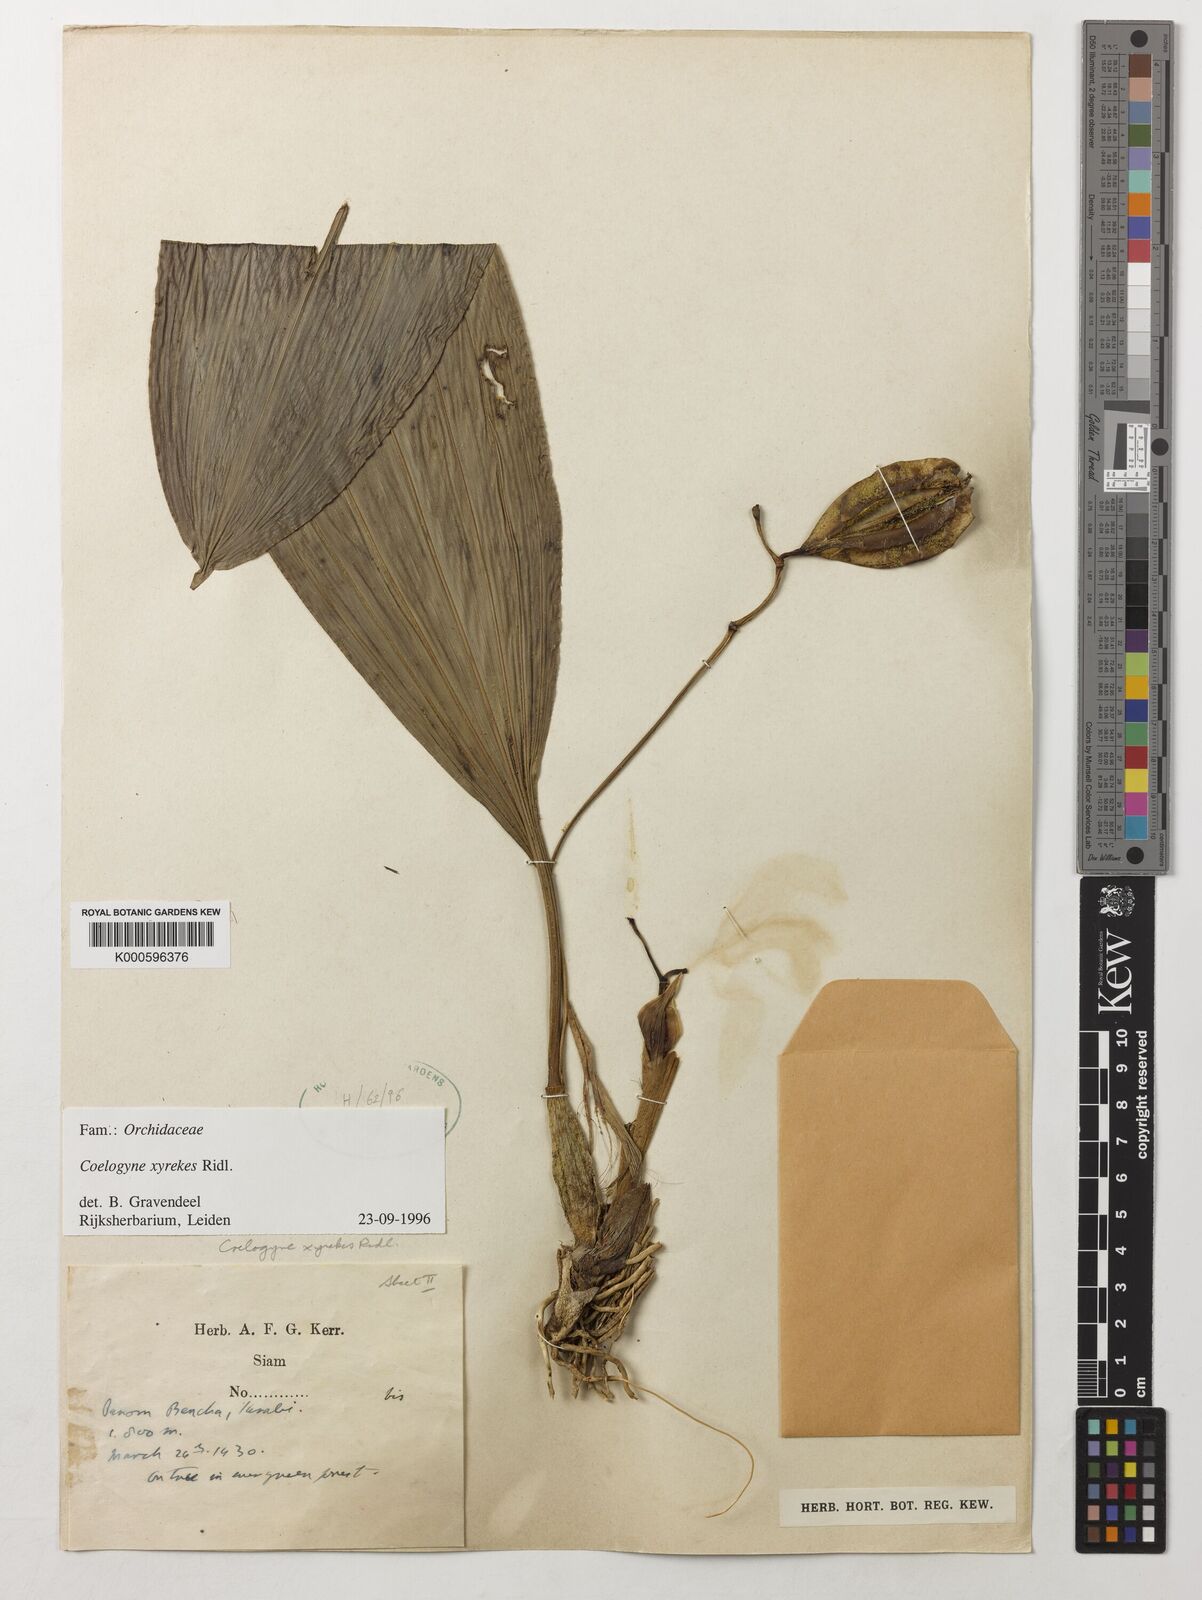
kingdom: Plantae
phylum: Tracheophyta
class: Liliopsida
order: Asparagales
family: Orchidaceae
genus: Coelogyne
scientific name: Coelogyne xyrekes
